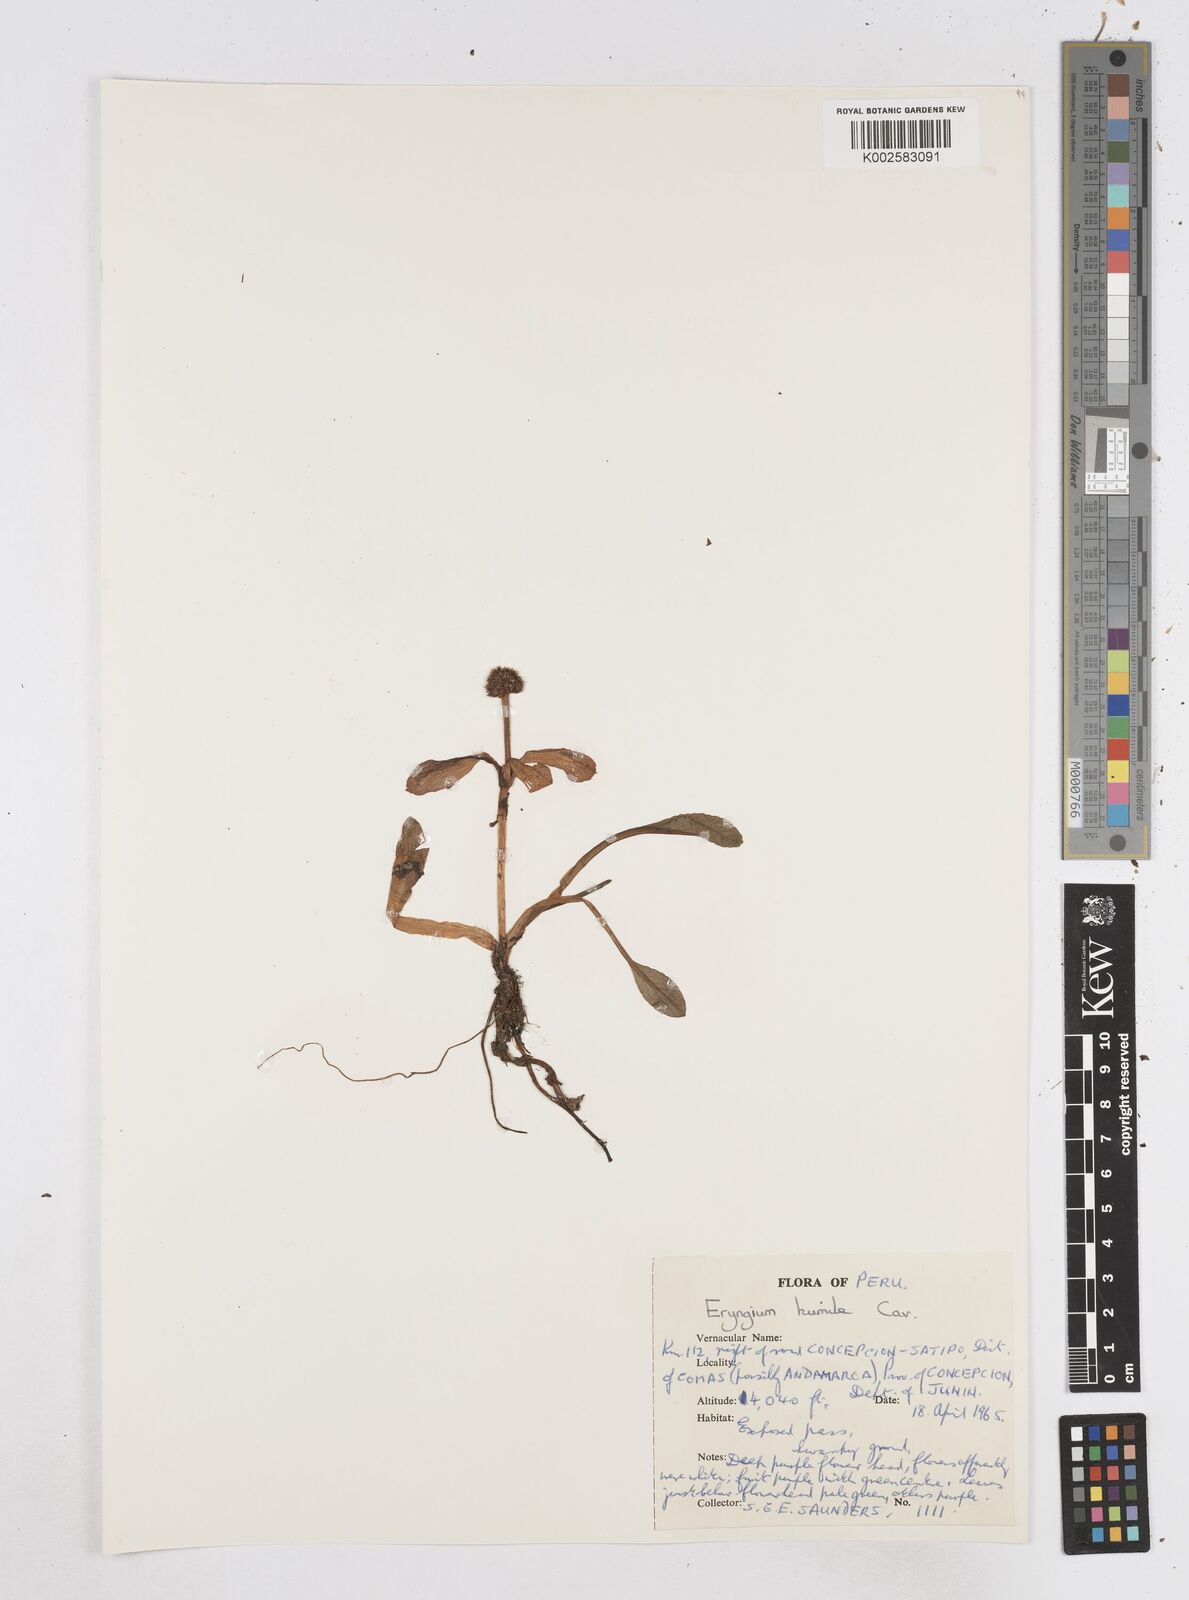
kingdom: Plantae
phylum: Tracheophyta
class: Magnoliopsida
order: Apiales
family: Apiaceae
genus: Eryngium
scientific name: Eryngium humile
